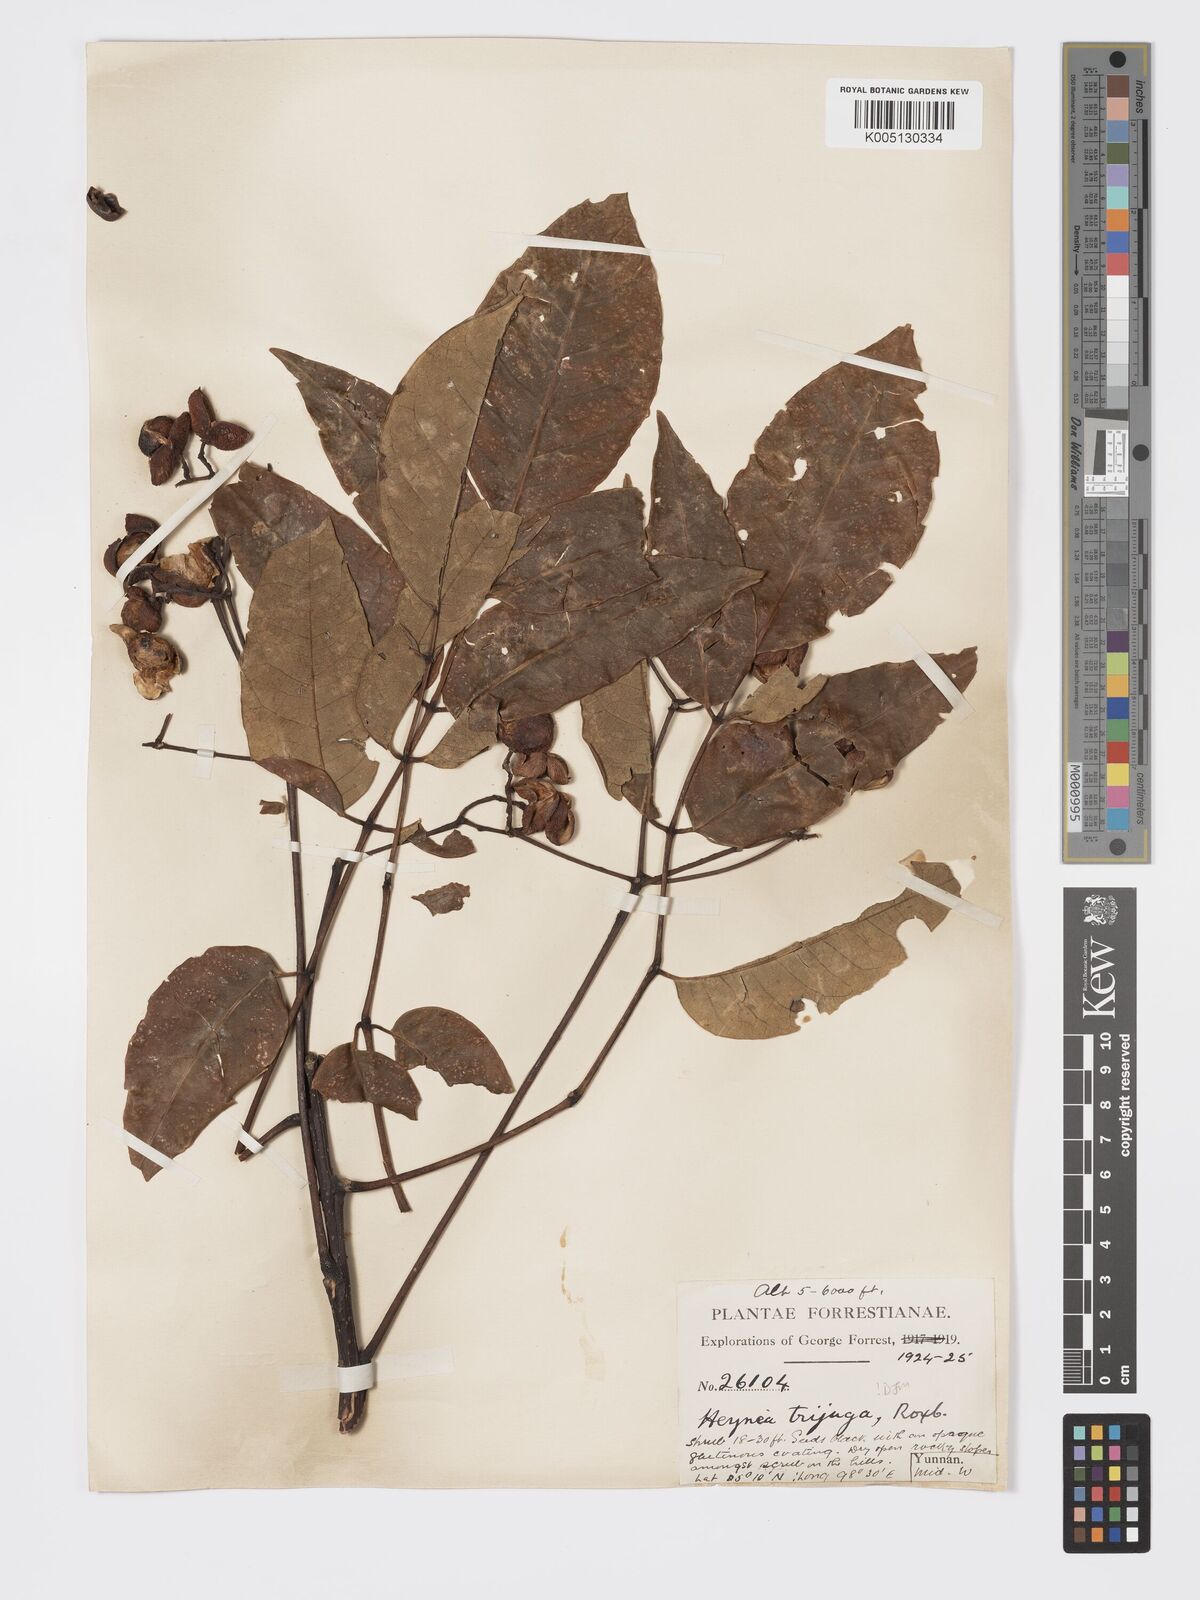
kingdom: Plantae
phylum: Tracheophyta
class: Magnoliopsida
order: Sapindales
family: Meliaceae
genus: Heynea
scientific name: Heynea trijuga
